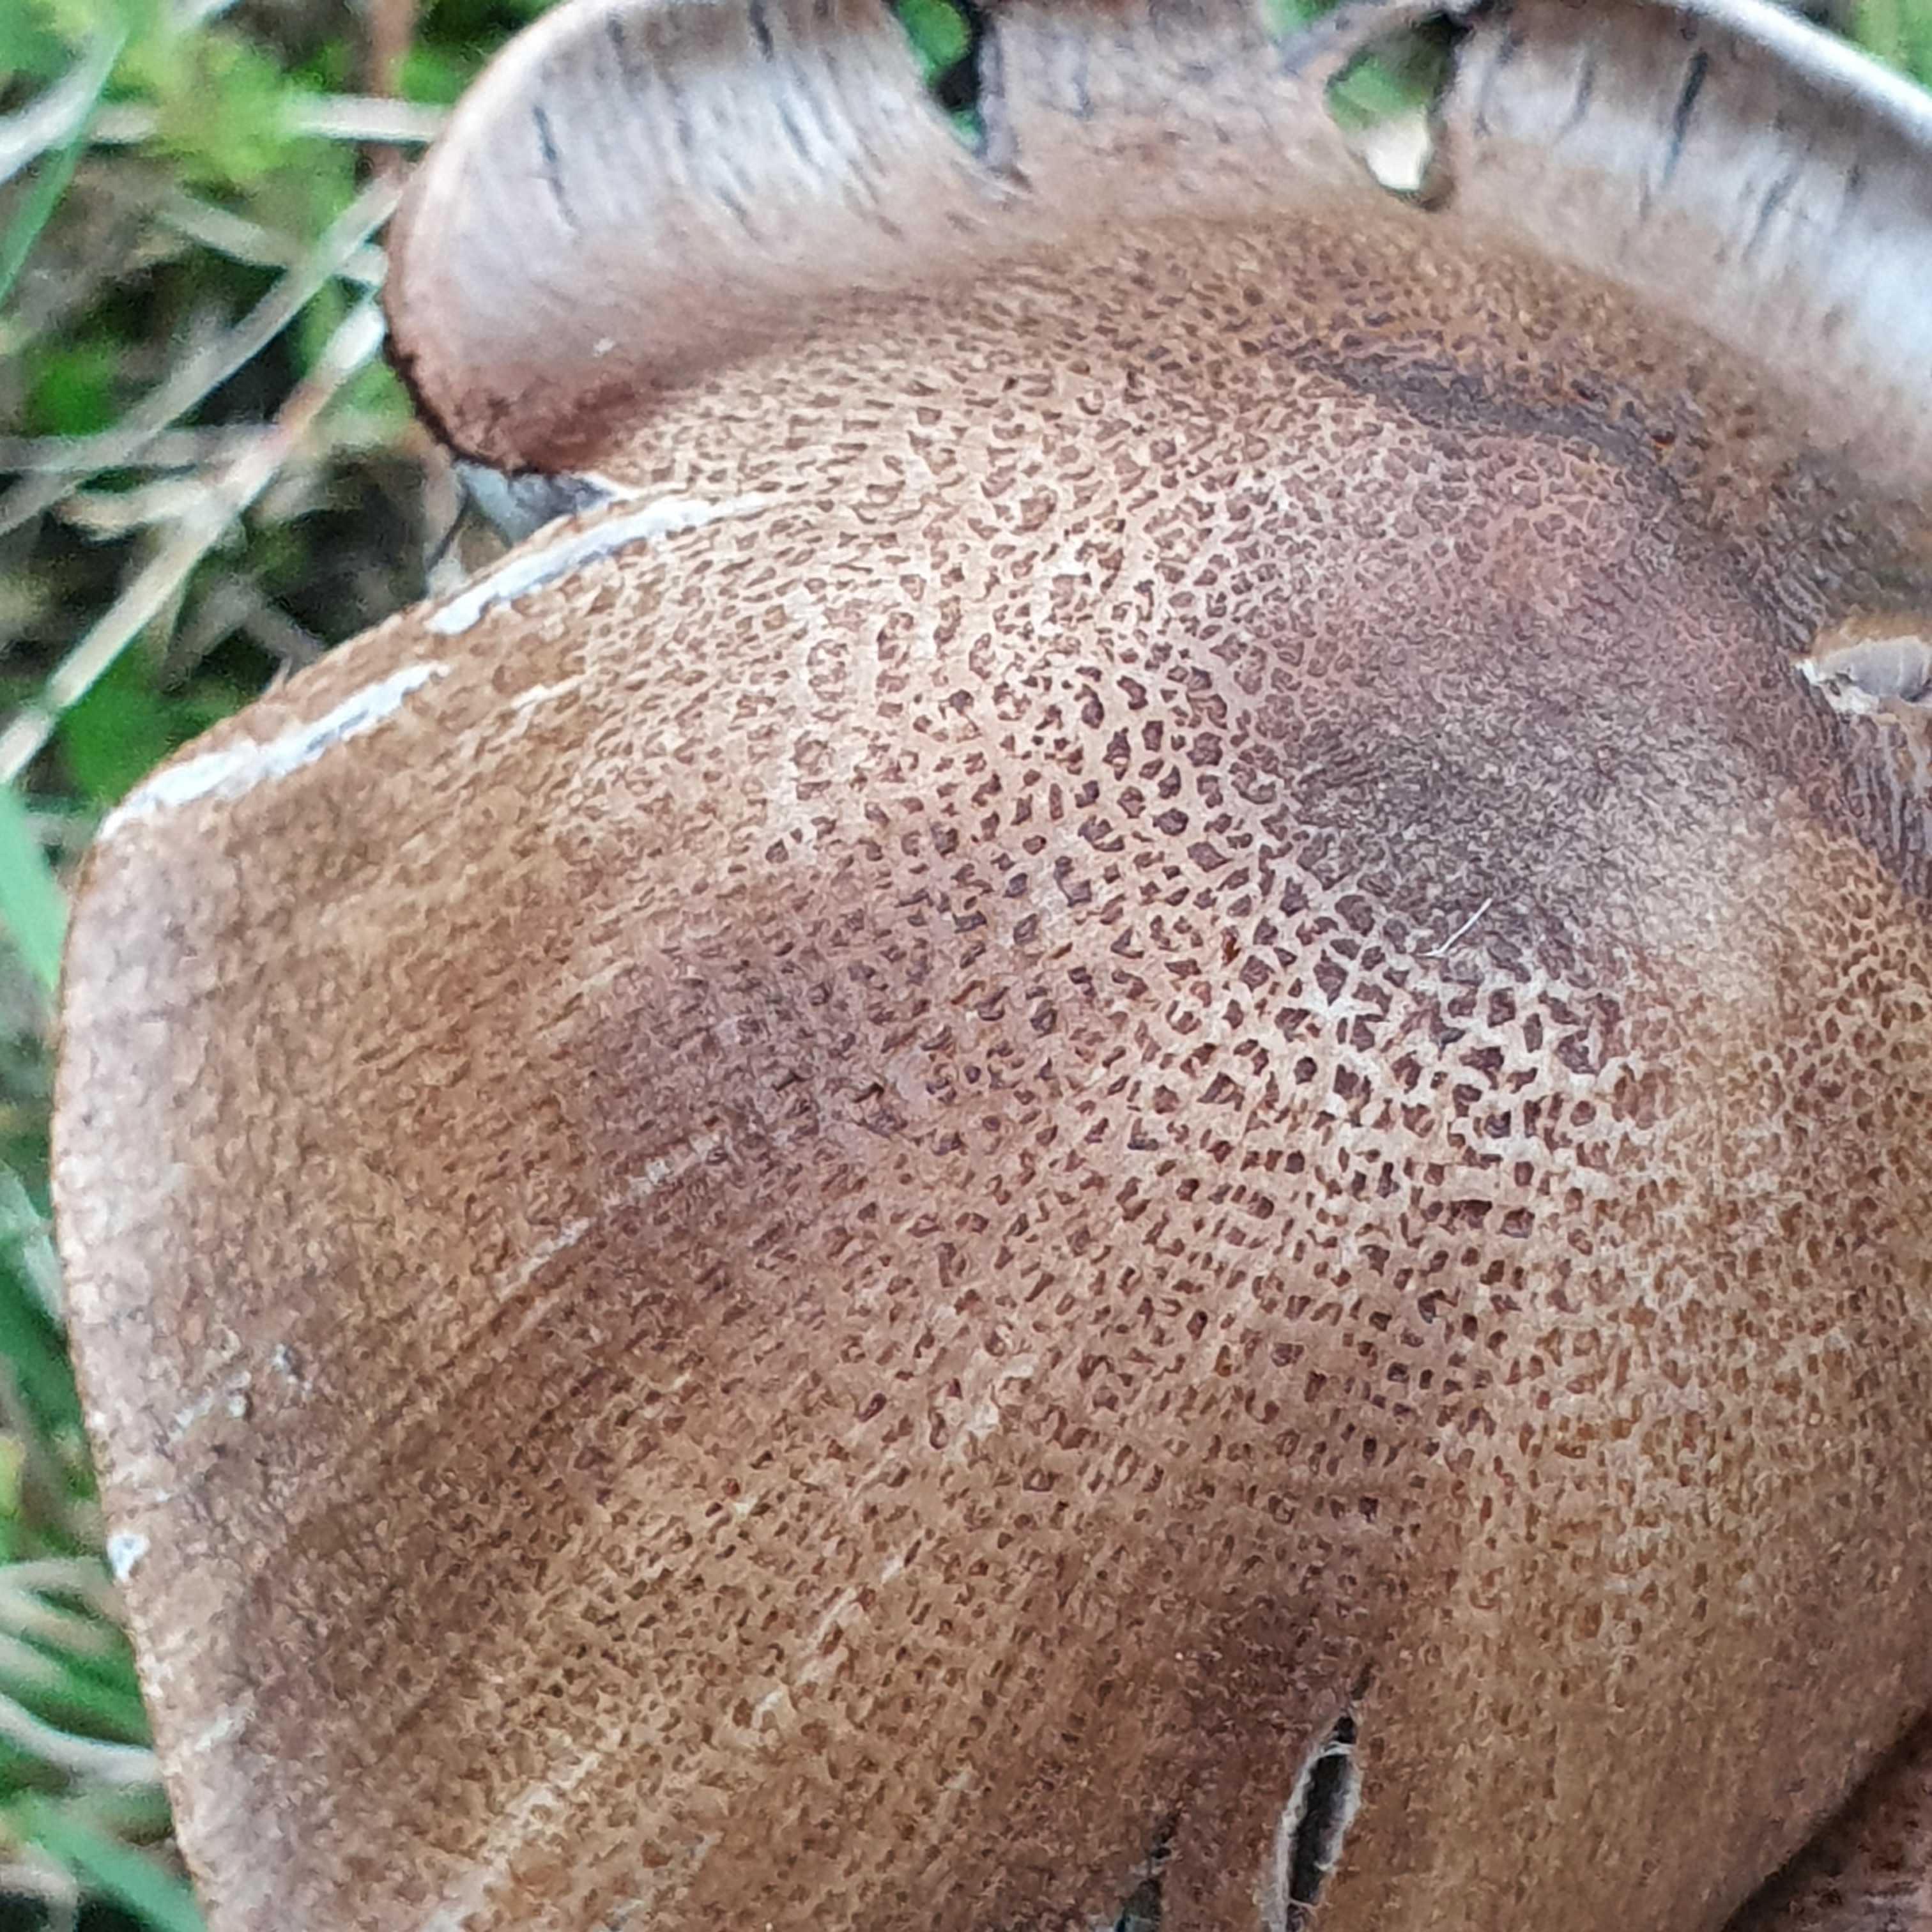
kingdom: Fungi
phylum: Basidiomycota
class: Agaricomycetes
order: Agaricales
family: Psathyrellaceae
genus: Coprinopsis
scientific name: Coprinopsis romagnesiana
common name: brunskællet blækhat
